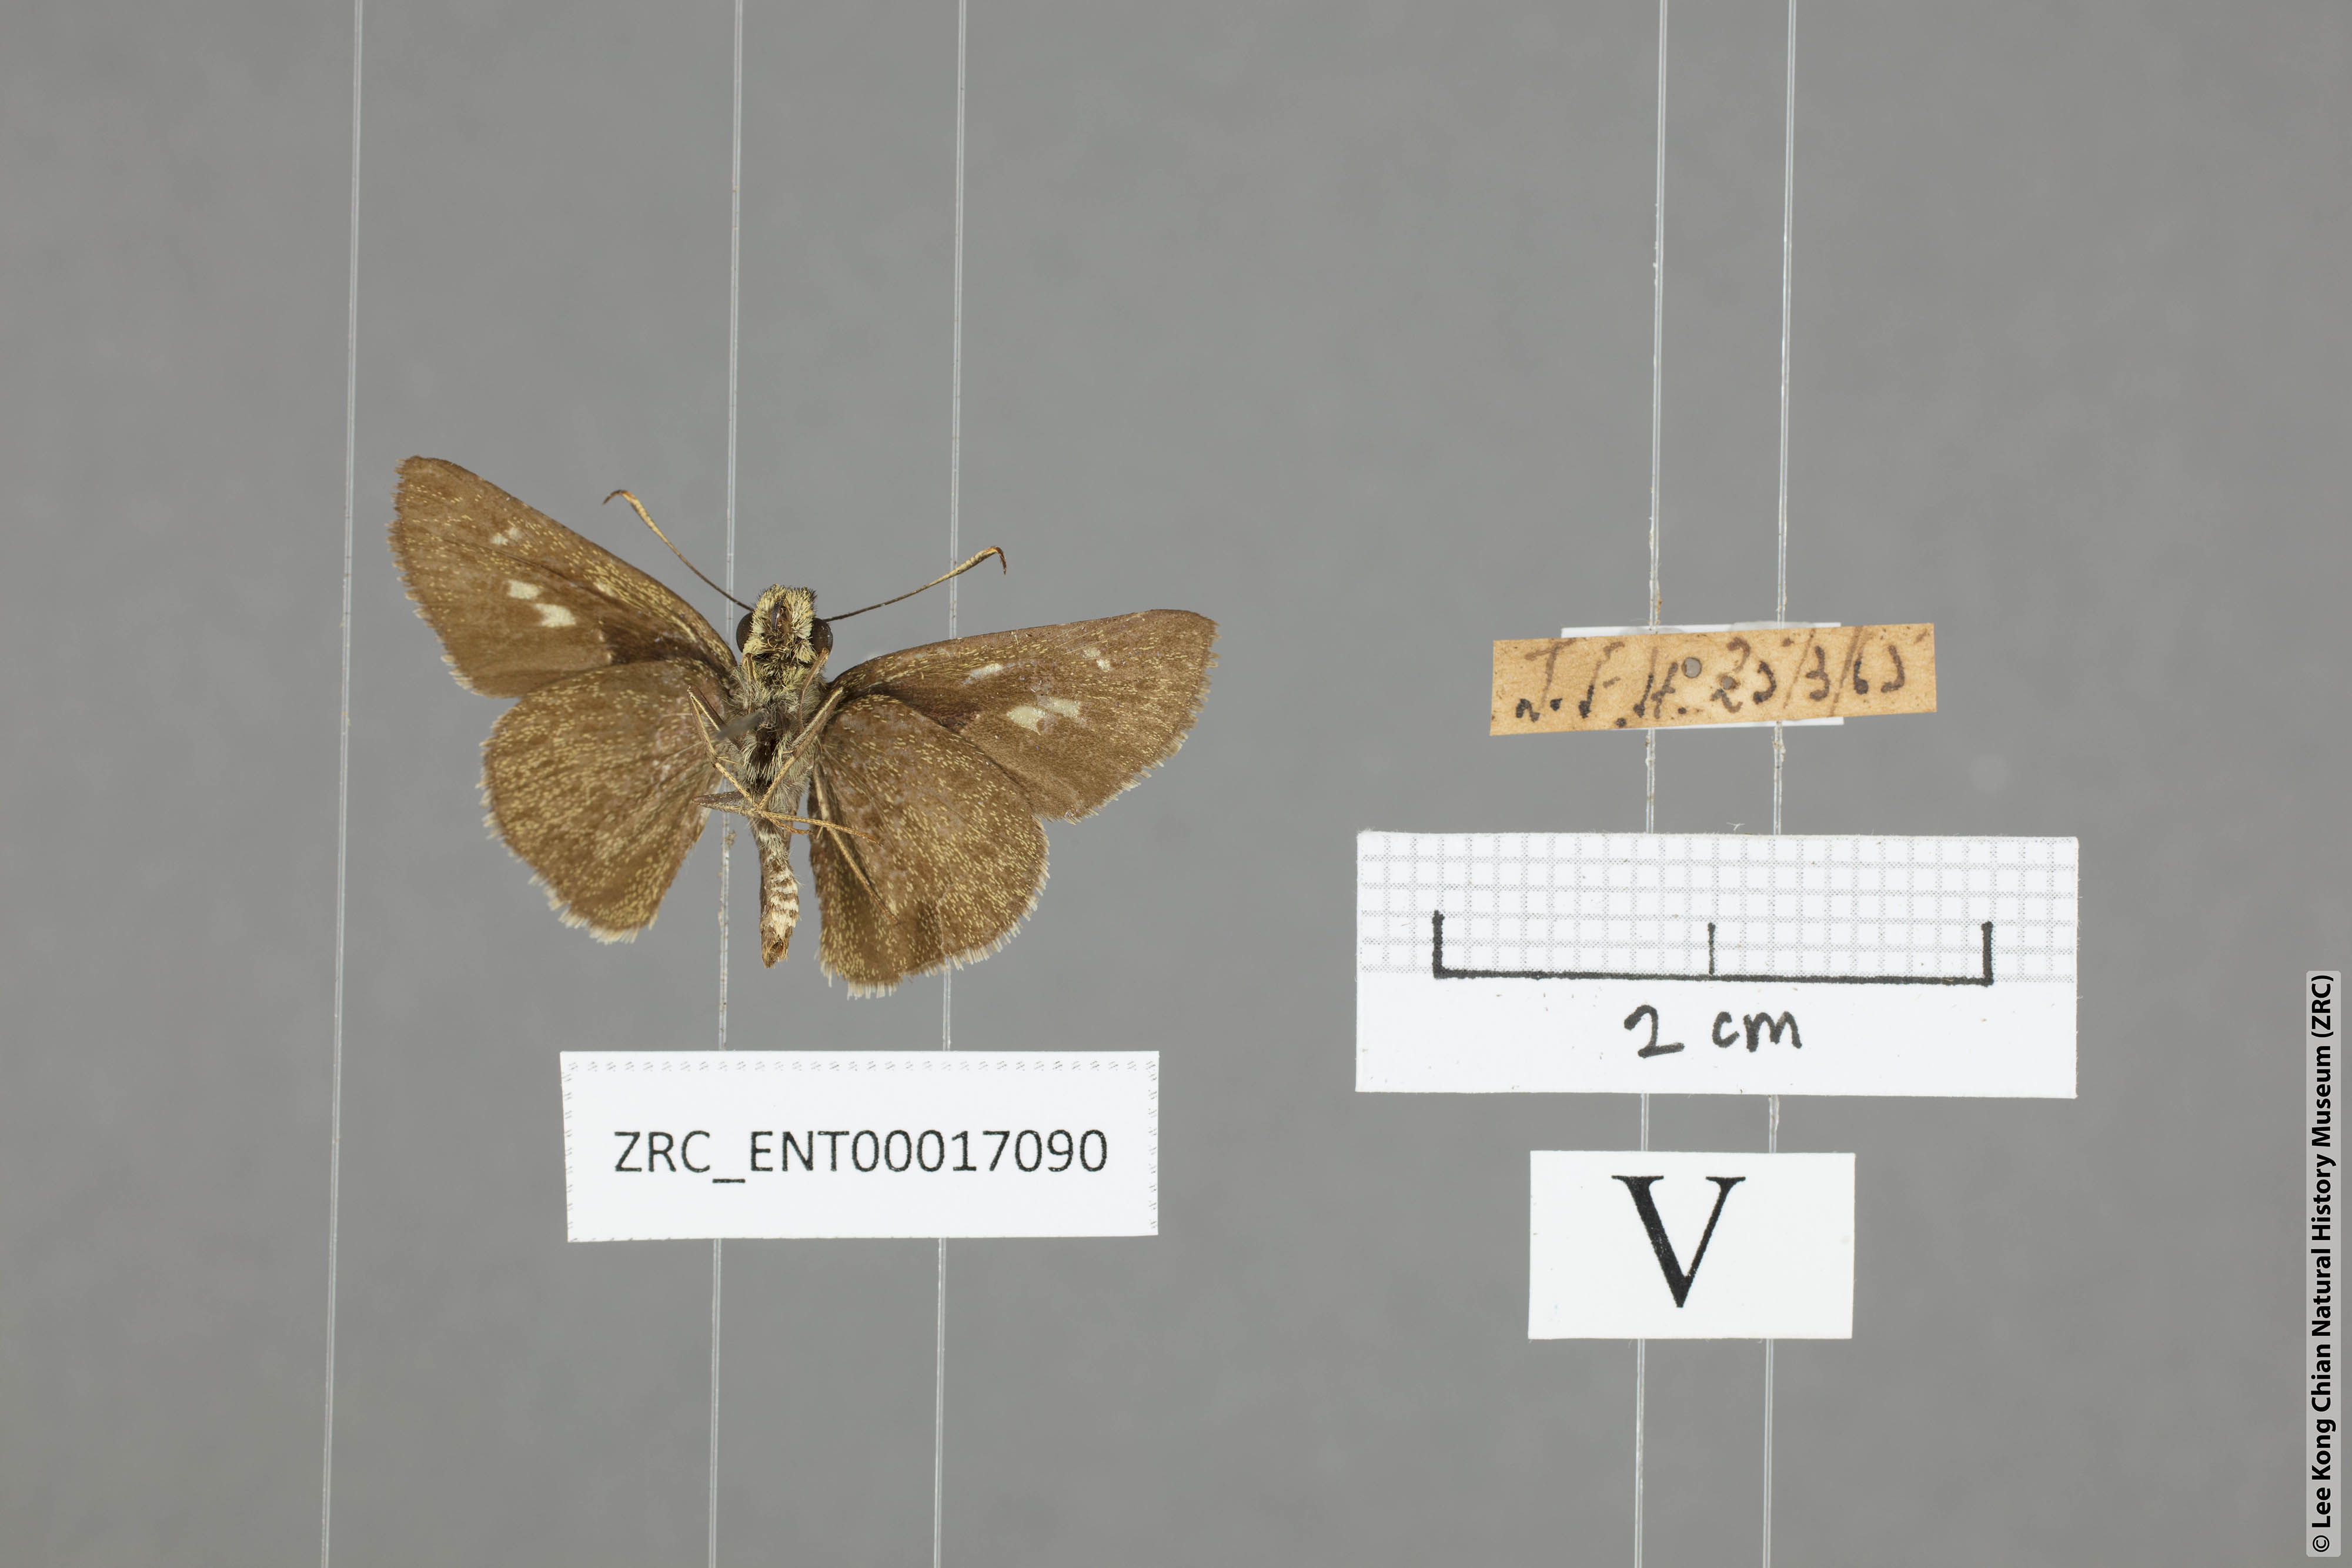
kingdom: Animalia
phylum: Arthropoda
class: Insecta
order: Lepidoptera
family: Hesperiidae
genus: Halpe
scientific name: Halpe wantona
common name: Swinhoe's ace
